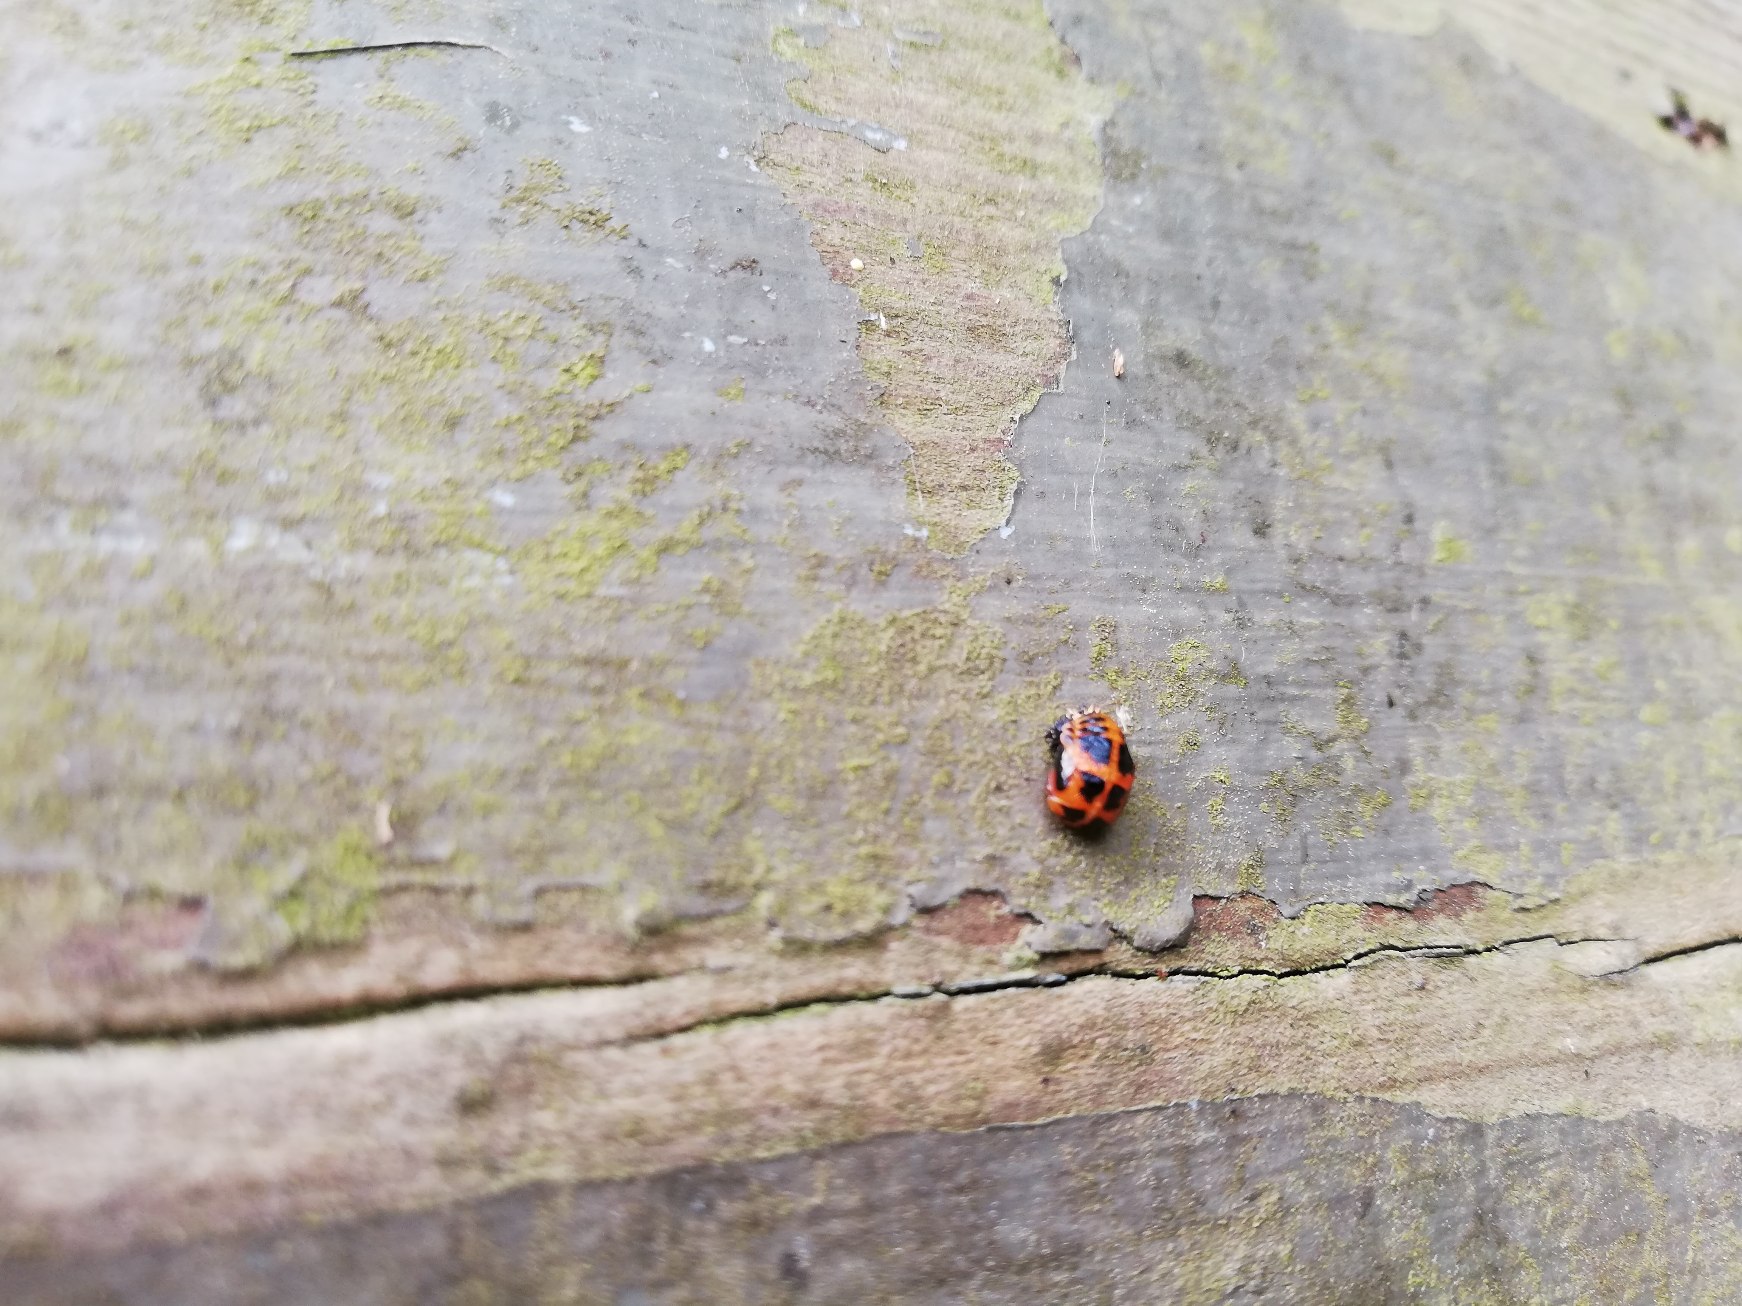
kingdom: Animalia
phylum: Arthropoda
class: Insecta
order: Coleoptera
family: Coccinellidae
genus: Harmonia
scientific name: Harmonia axyridis
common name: Harlekinmariehøne
